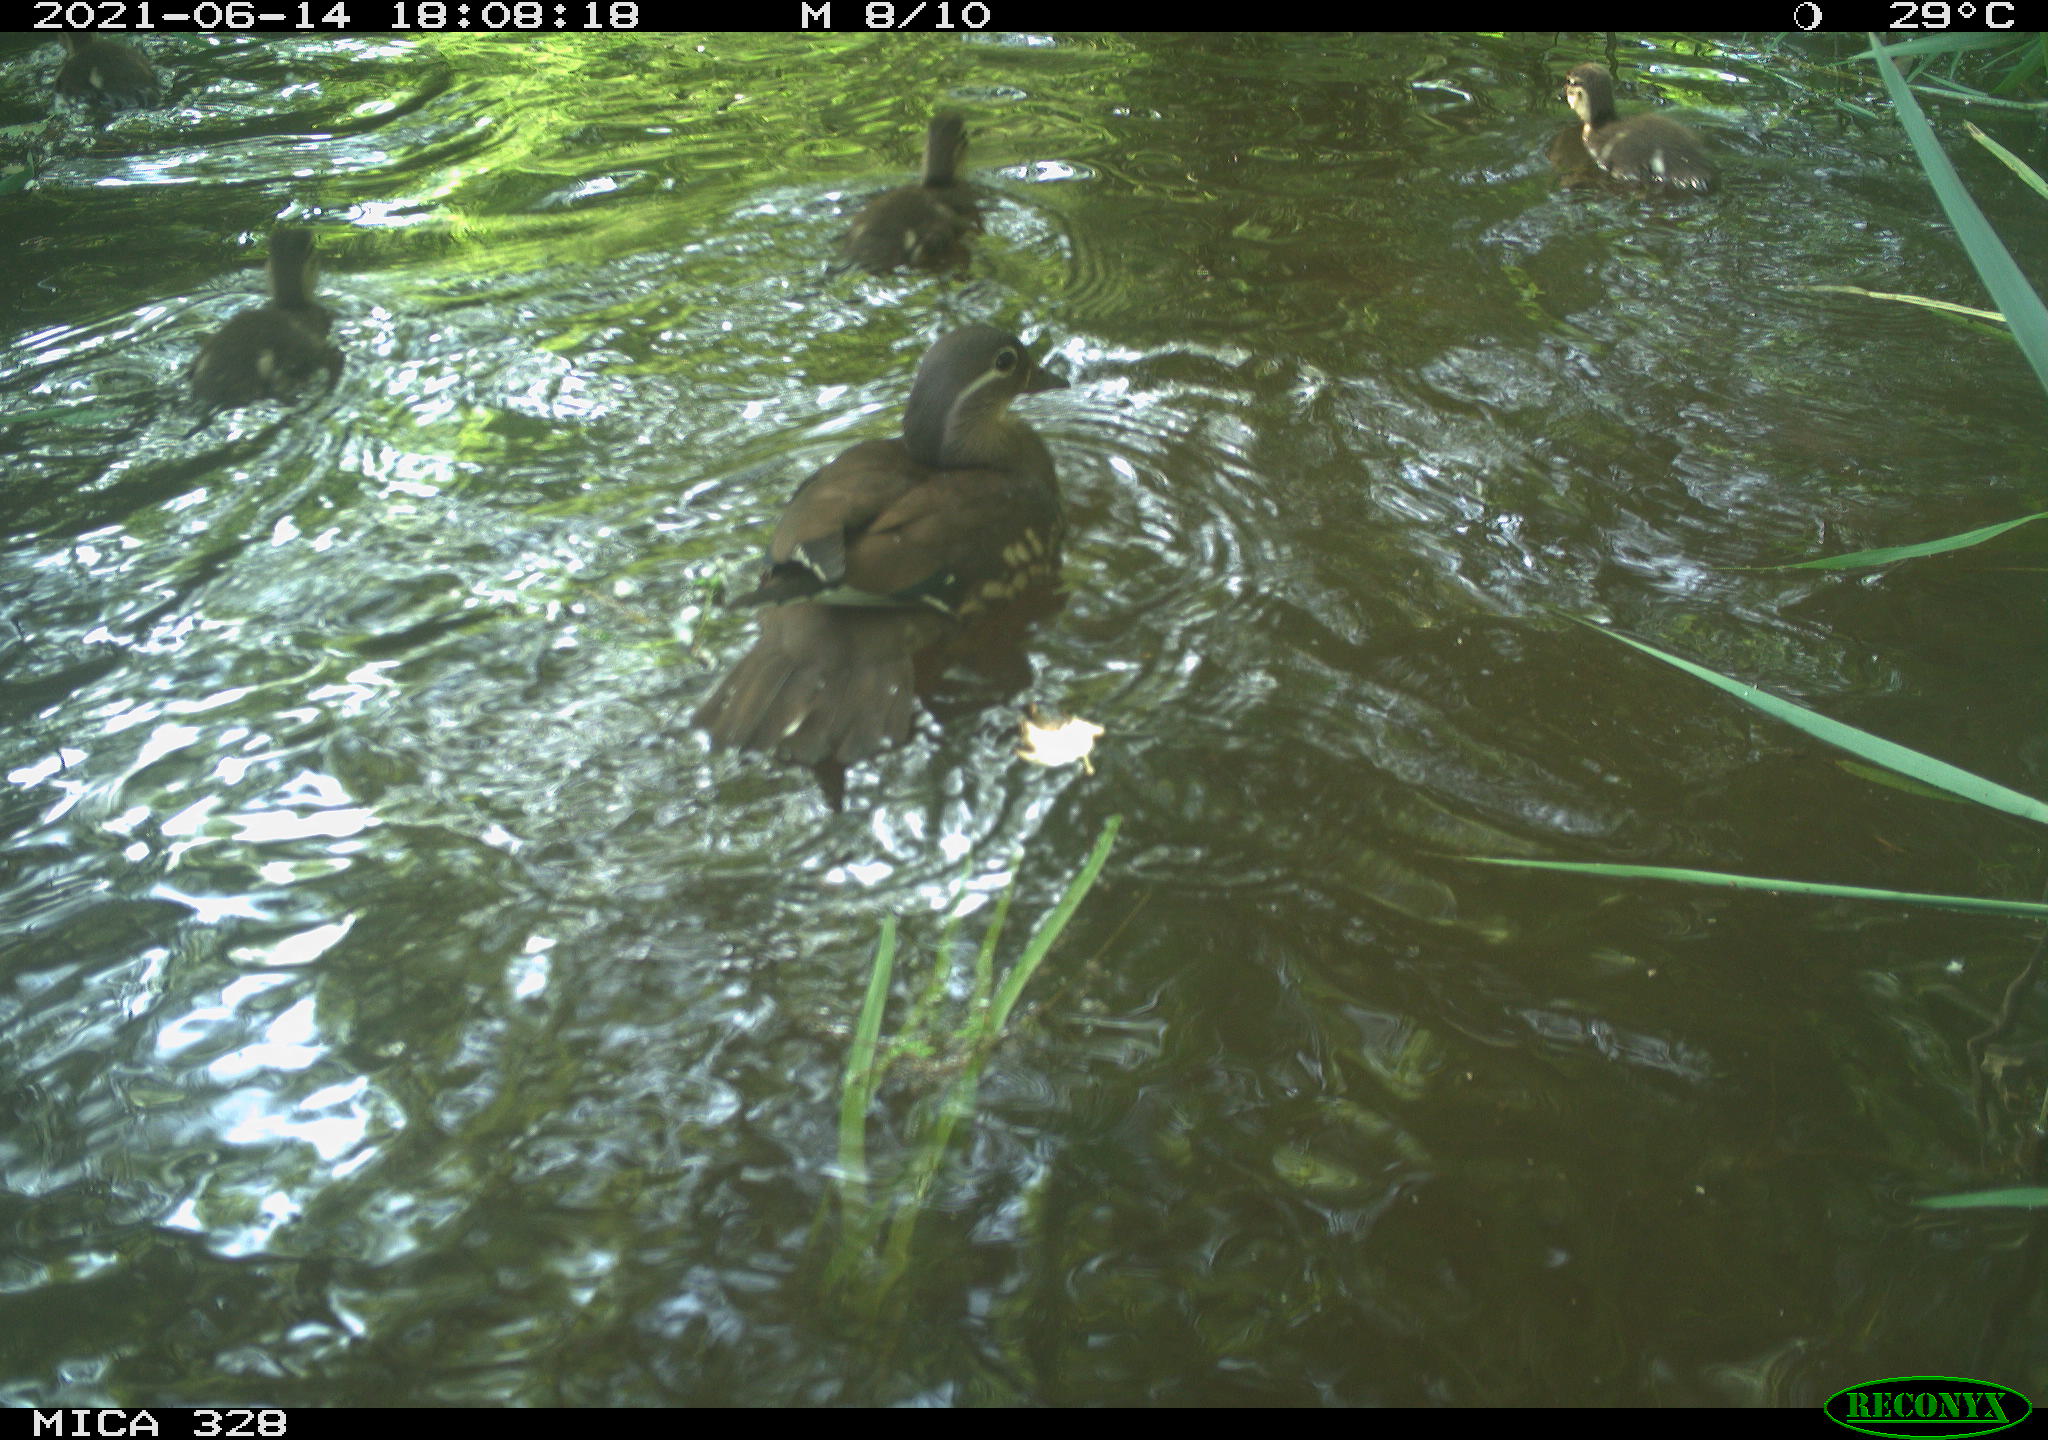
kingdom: Animalia
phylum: Chordata
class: Aves
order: Anseriformes
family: Anatidae
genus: Aix
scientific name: Aix galericulata
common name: Mandarin duck
